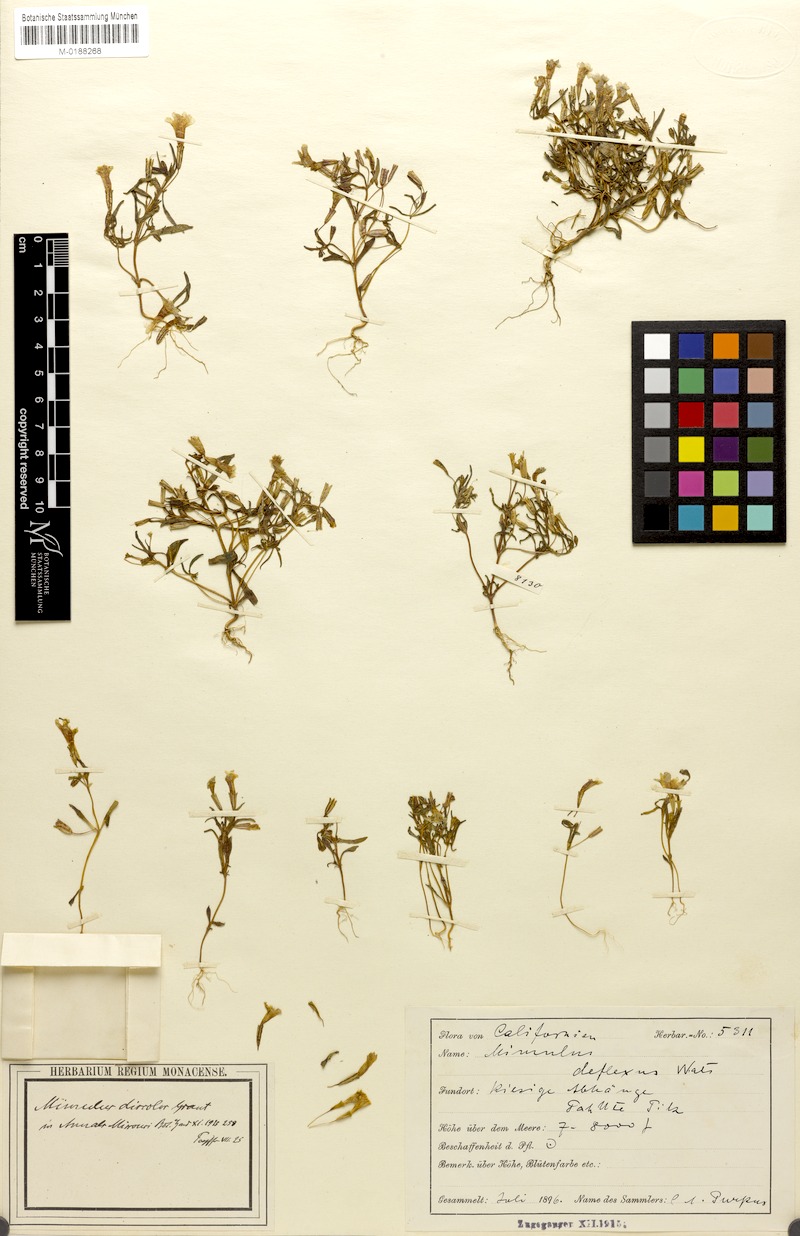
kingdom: Plantae
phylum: Tracheophyta
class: Magnoliopsida
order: Lamiales
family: Phrymaceae
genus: Erythranthe
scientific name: Erythranthe discolor
